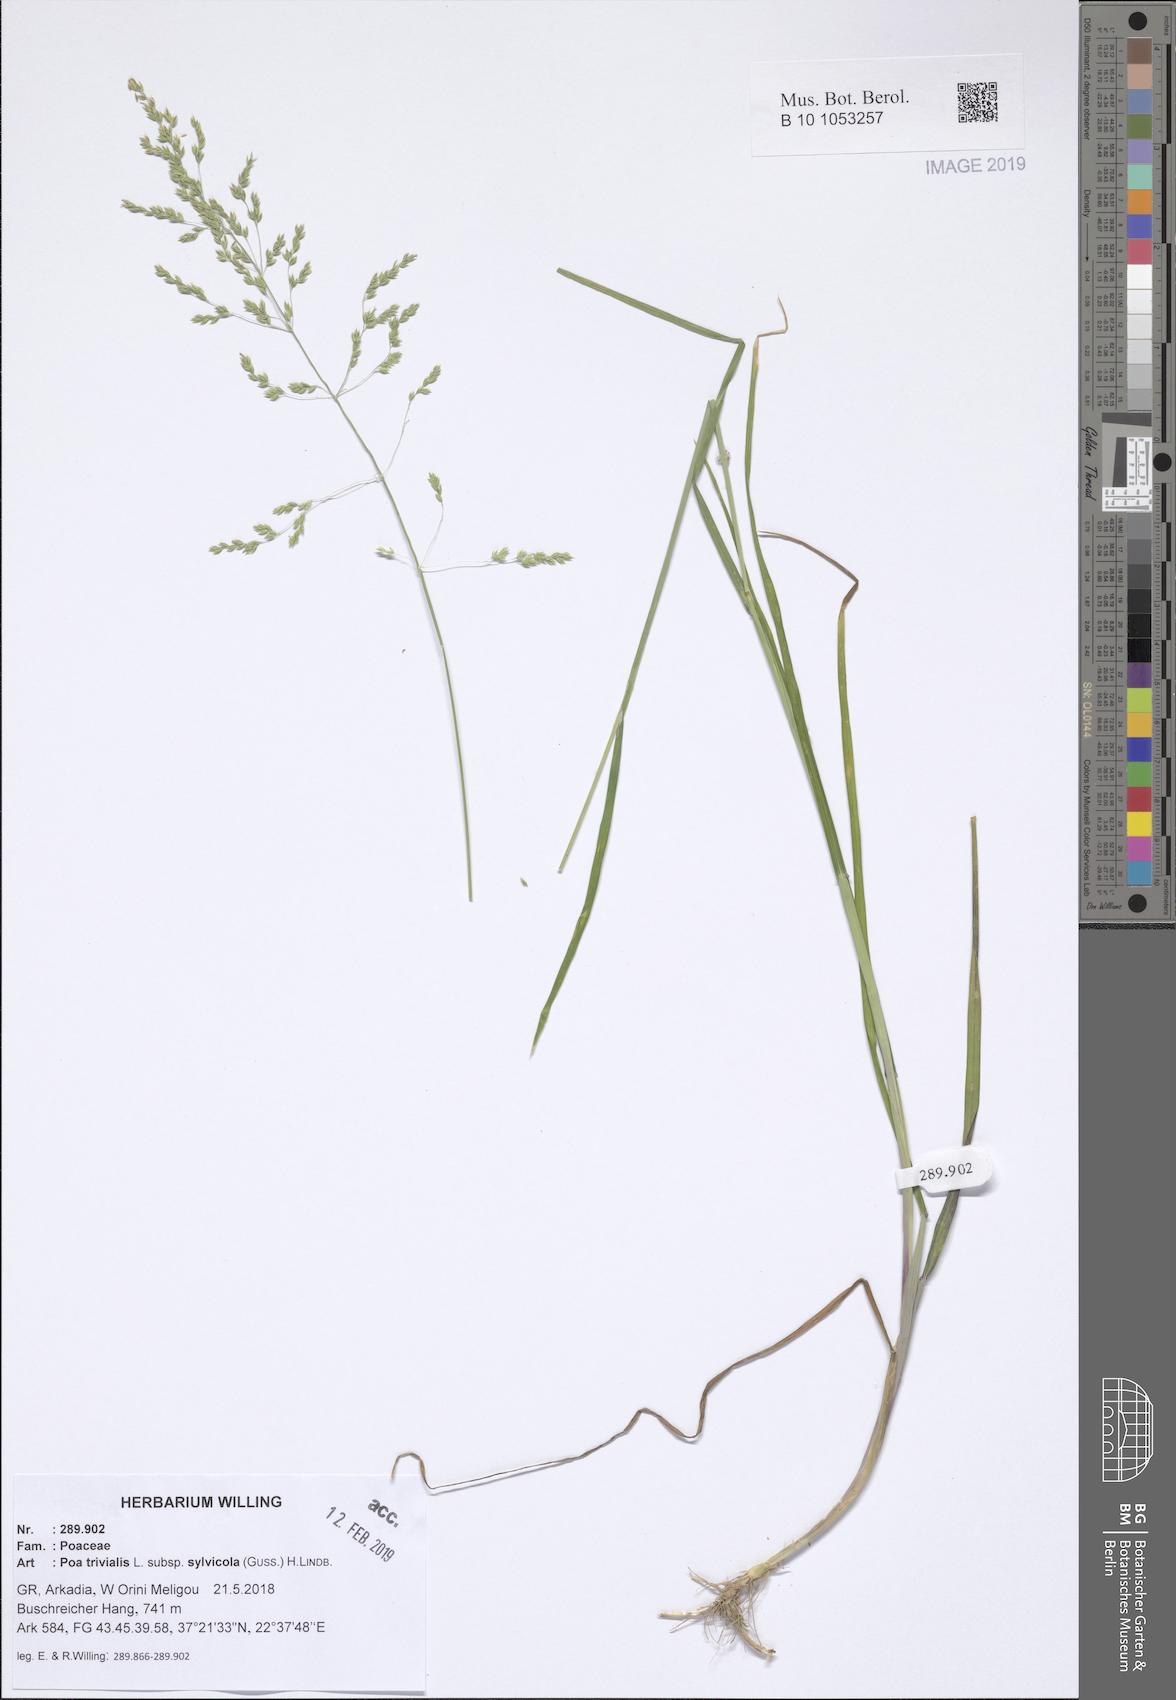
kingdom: Plantae
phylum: Tracheophyta
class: Liliopsida
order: Poales
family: Poaceae
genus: Poa
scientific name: Poa trivialis
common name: Rough bluegrass
